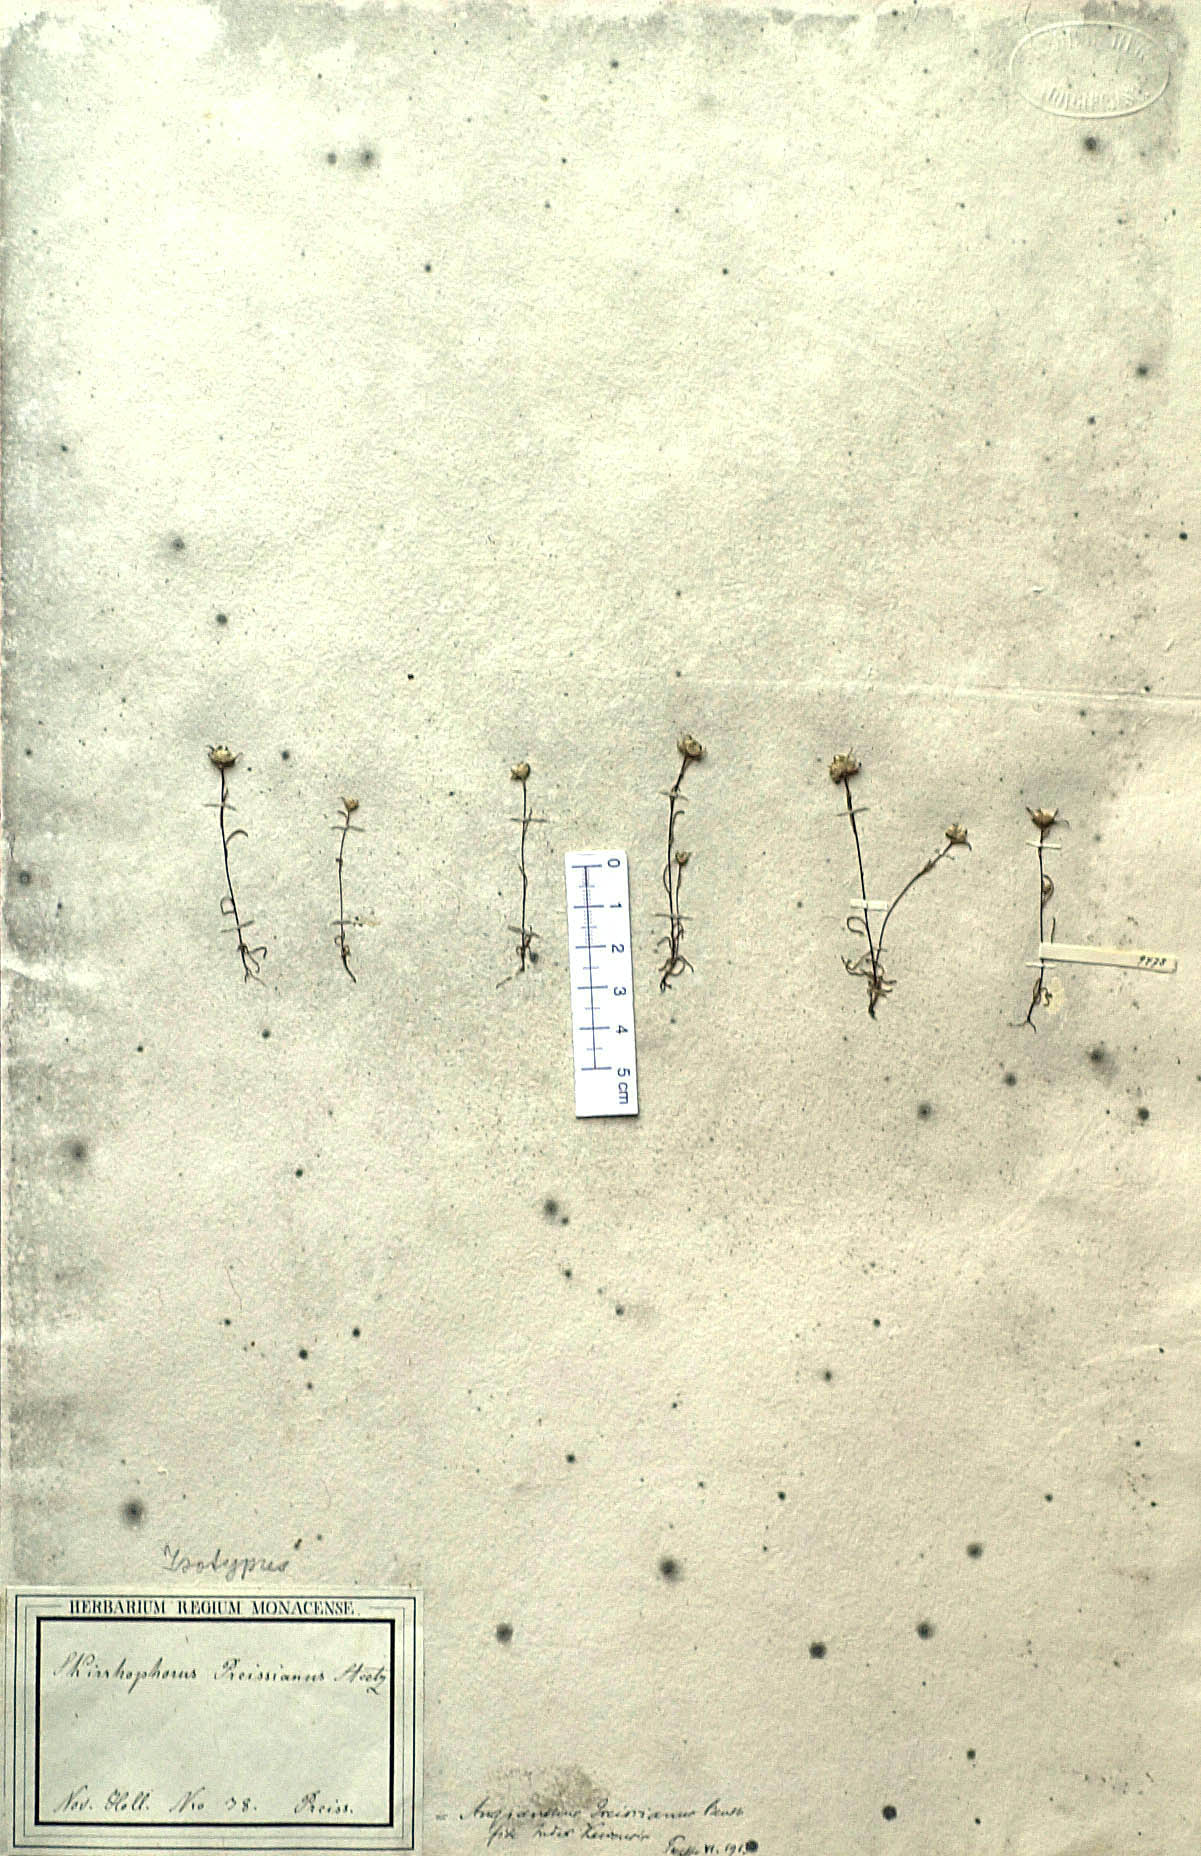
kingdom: Plantae
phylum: Tracheophyta
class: Magnoliopsida
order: Asterales
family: Asteraceae
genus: Angianthus
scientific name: Angianthus preissianus
